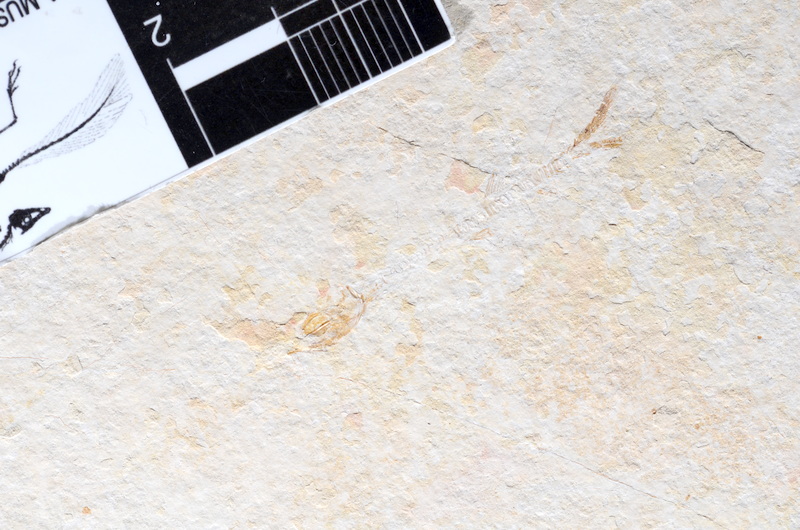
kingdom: Animalia
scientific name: Animalia
